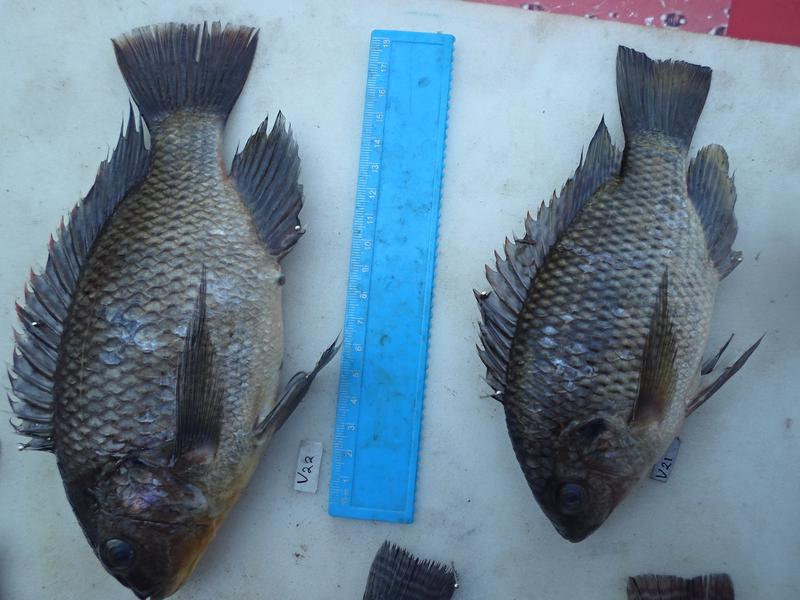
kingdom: Animalia
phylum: Chordata
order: Perciformes
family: Cichlidae
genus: Oreochromis
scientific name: Oreochromis variabilis
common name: Victoria tilapia
